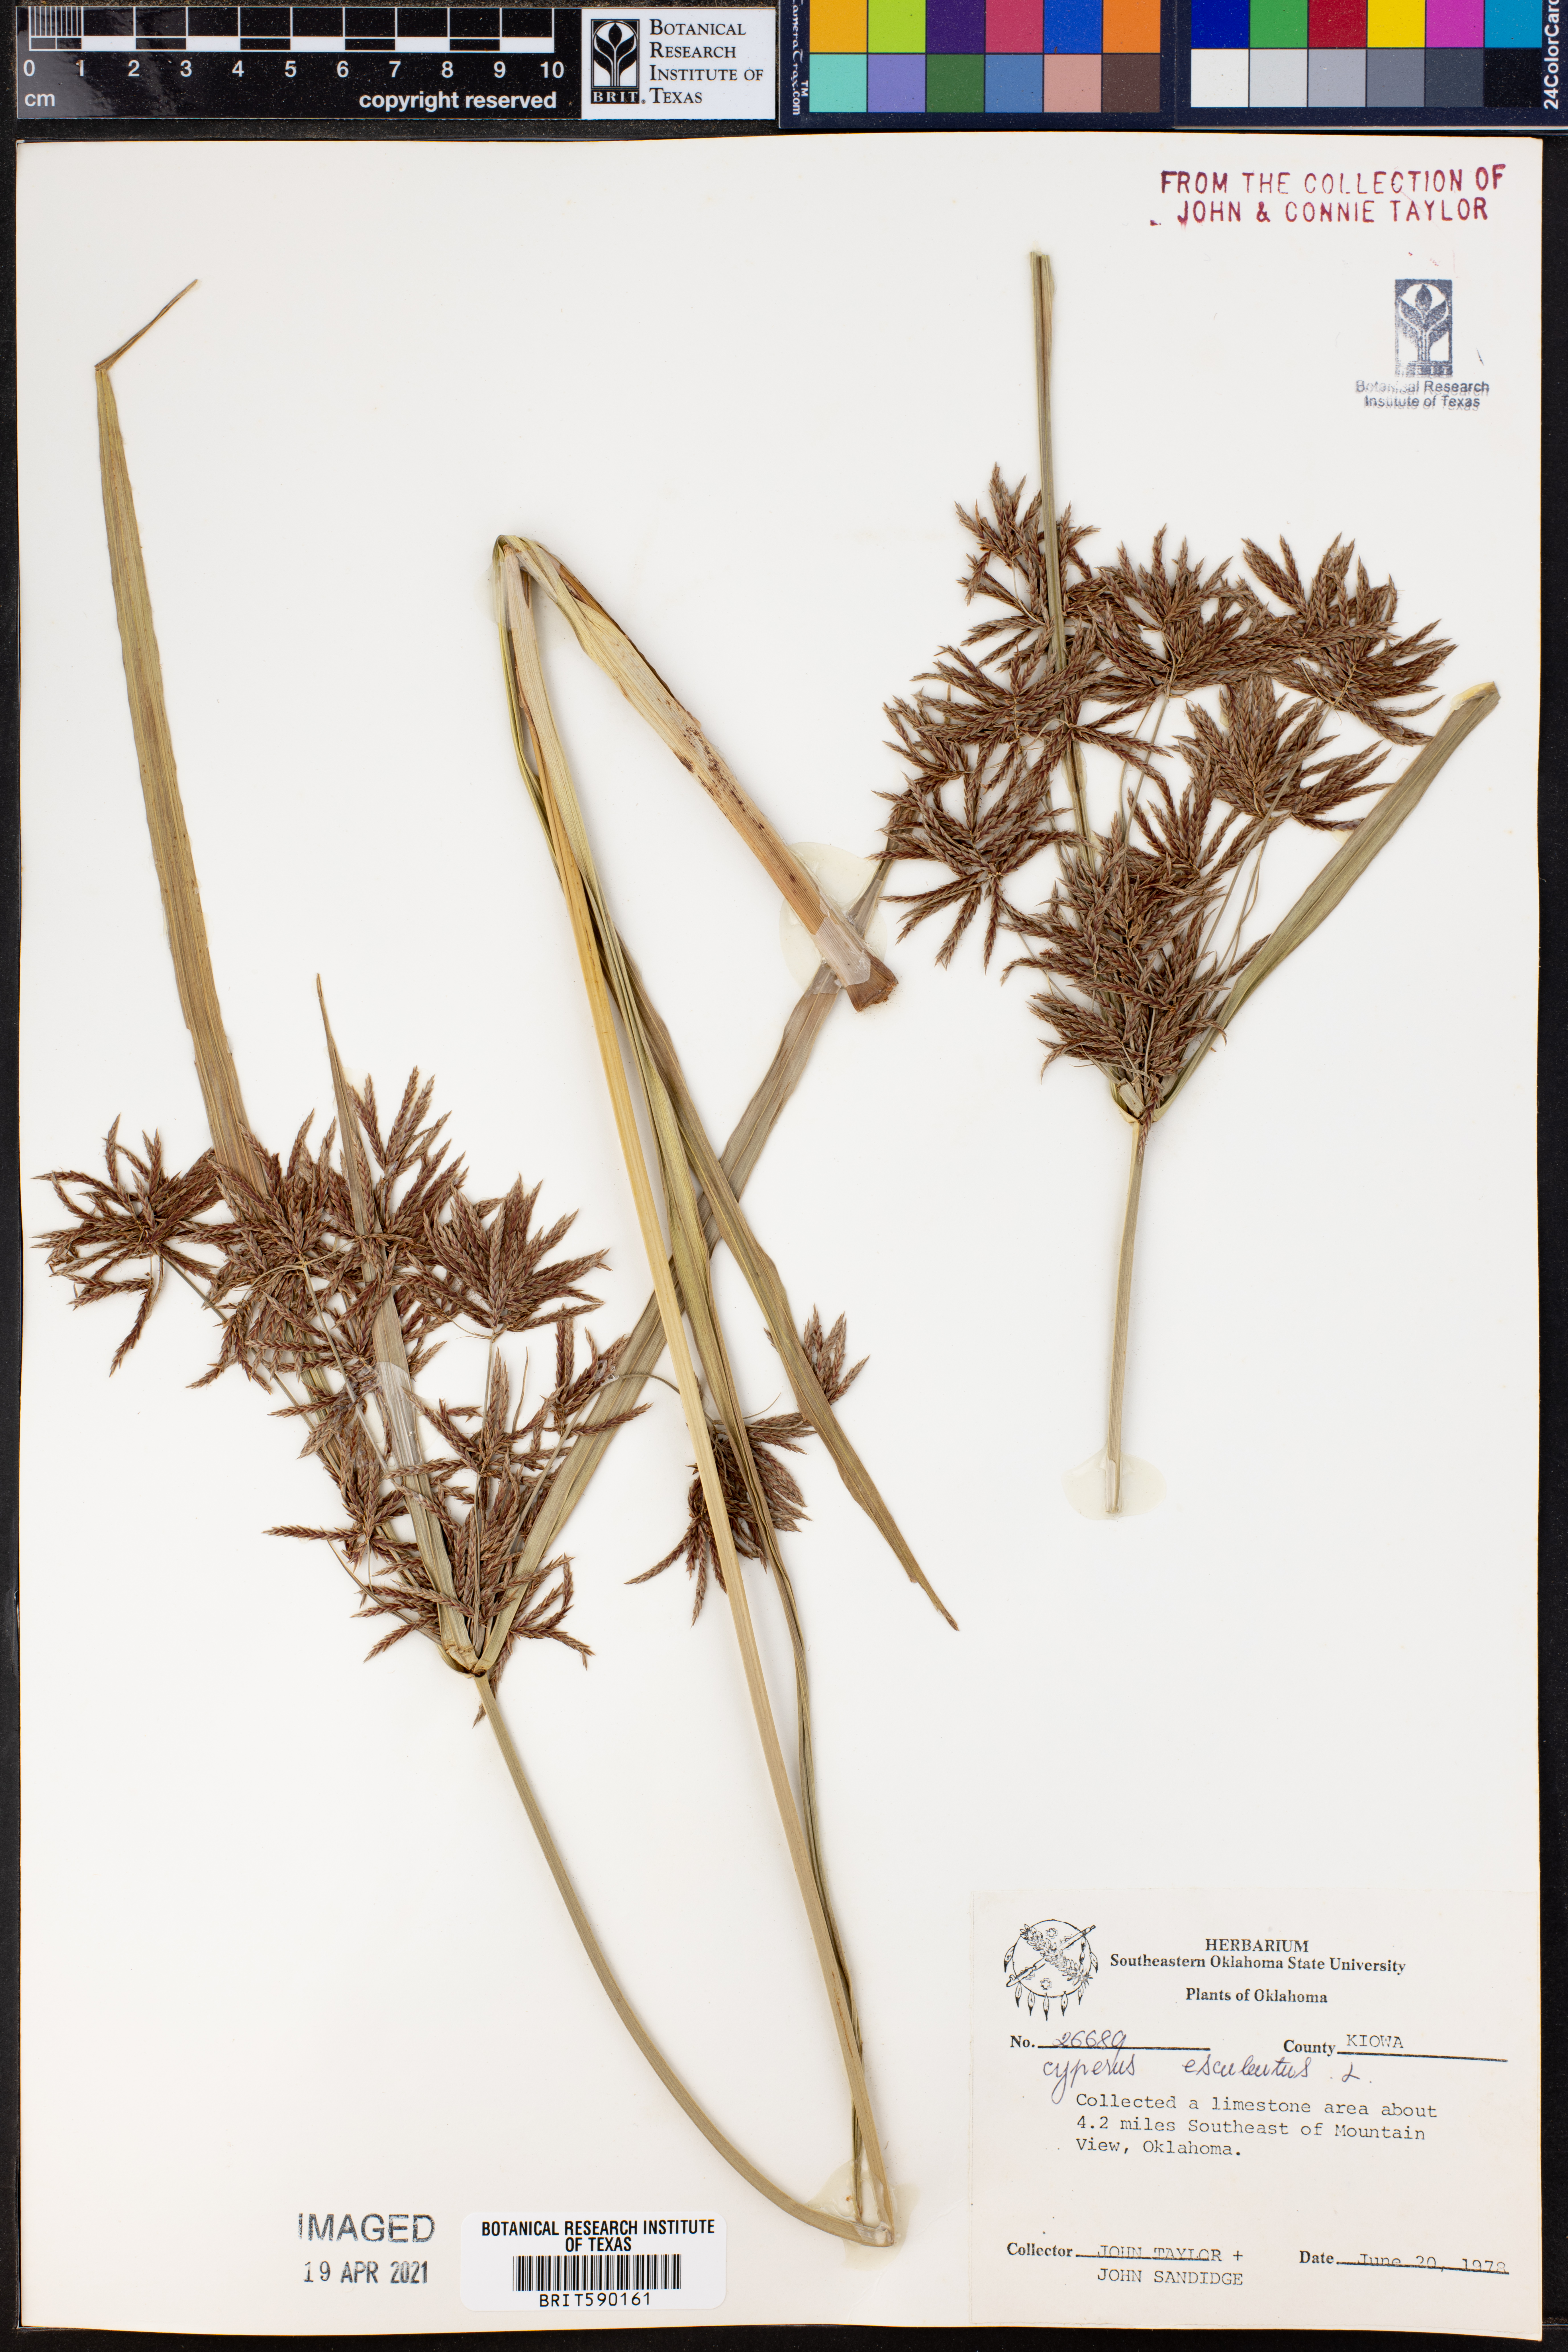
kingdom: Plantae
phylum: Tracheophyta
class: Liliopsida
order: Poales
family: Cyperaceae
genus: Cyperus
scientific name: Cyperus esculentus
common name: Yellow nutsedge
